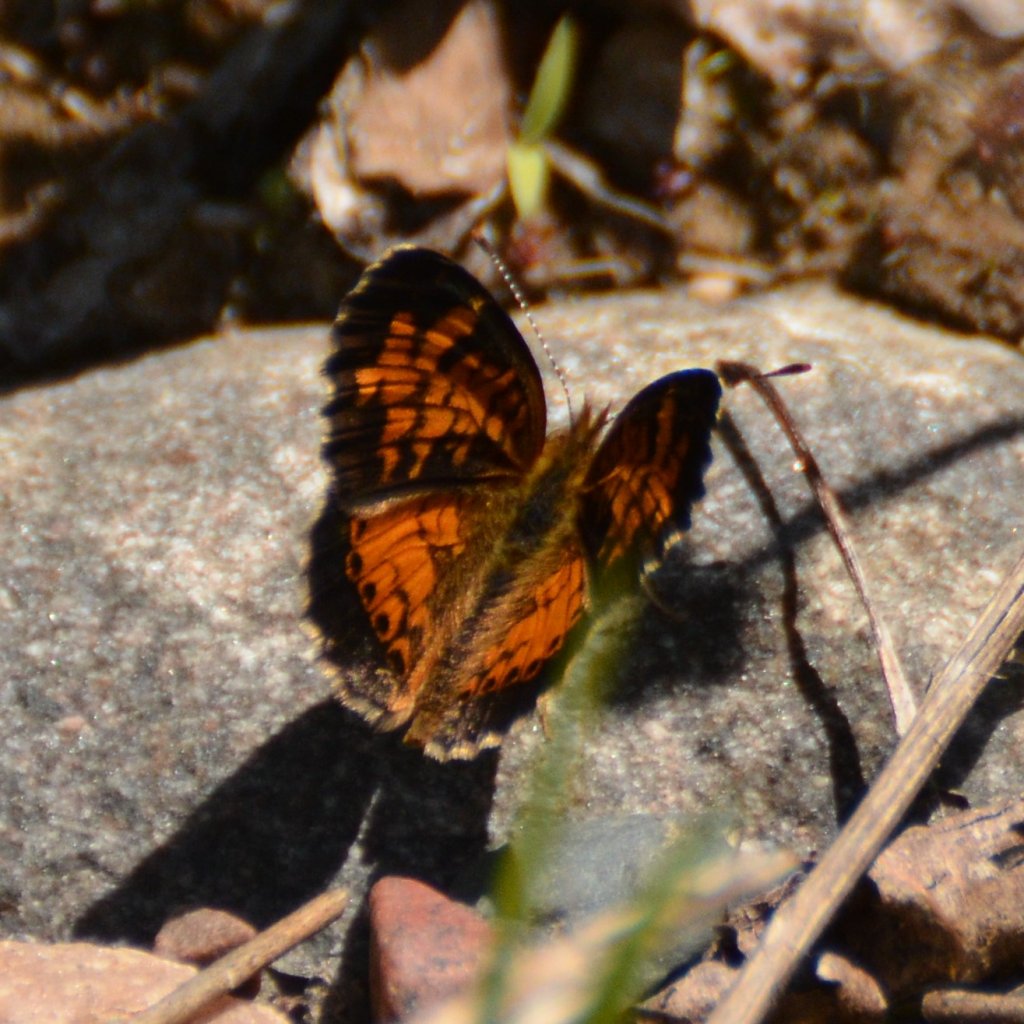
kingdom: Animalia
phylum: Arthropoda
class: Insecta
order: Lepidoptera
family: Nymphalidae
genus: Phyciodes
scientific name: Phyciodes tharos
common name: Northern Crescent
